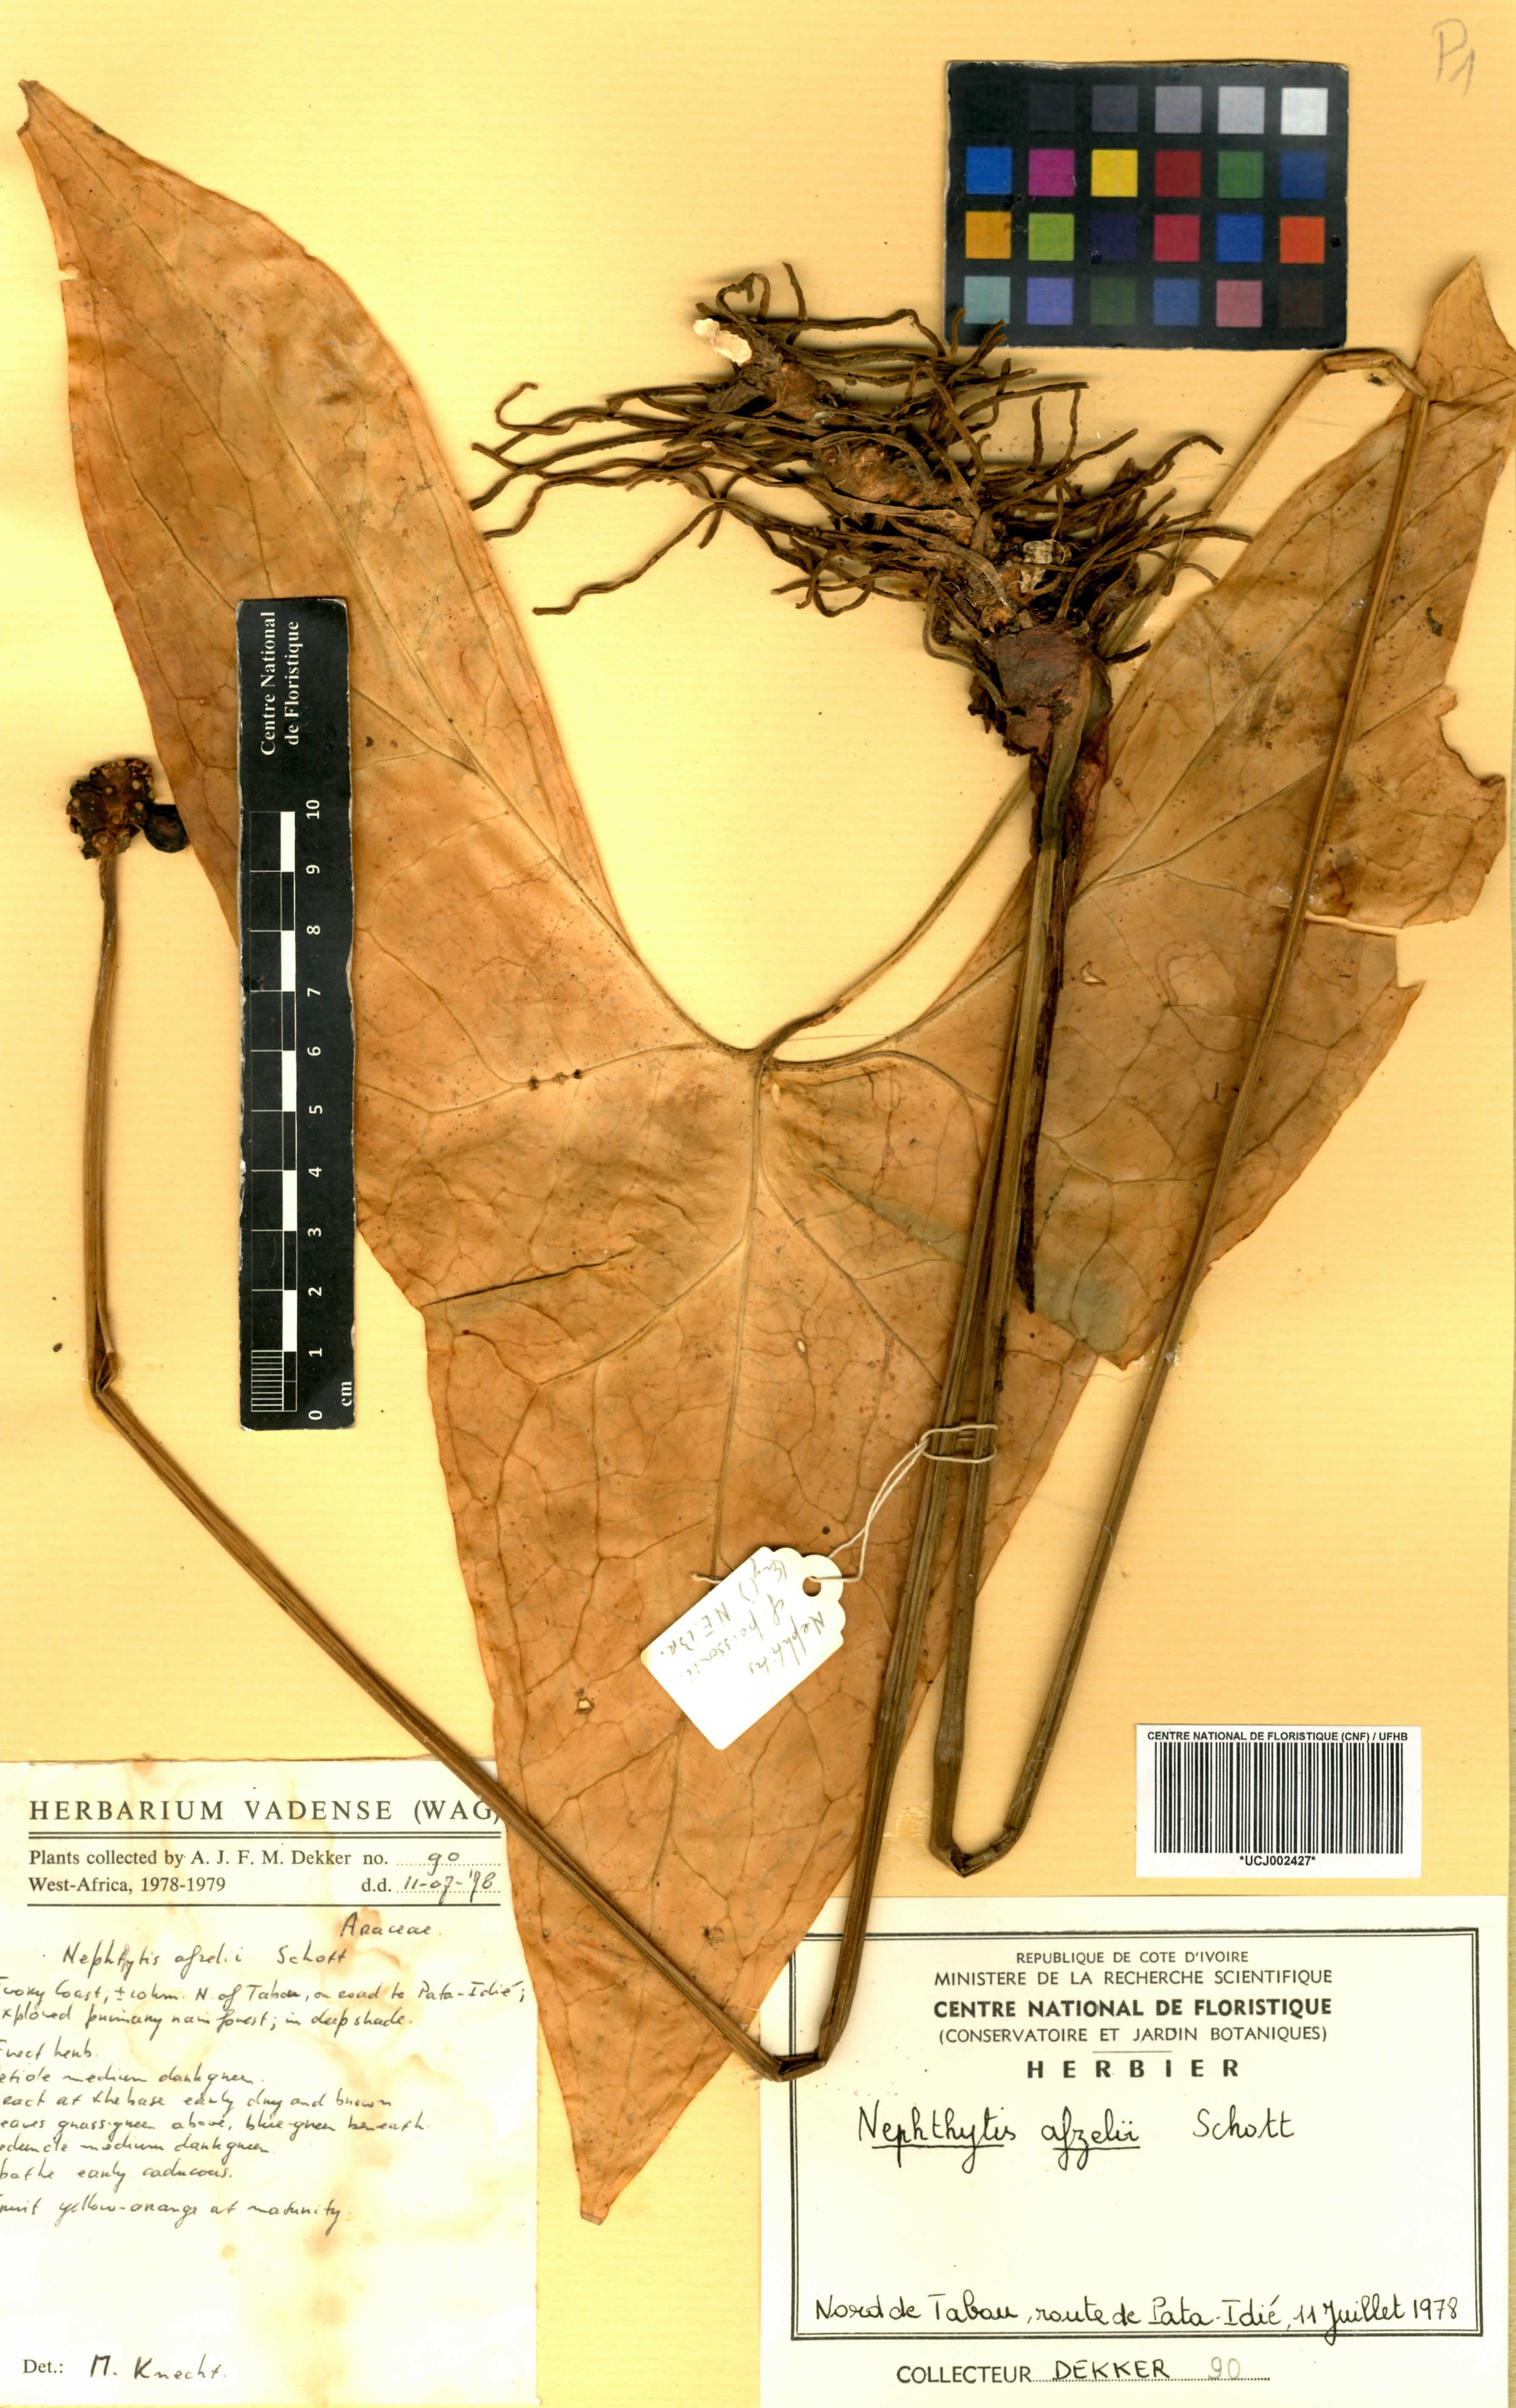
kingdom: Plantae
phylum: Tracheophyta
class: Liliopsida
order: Alismatales
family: Araceae
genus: Nephthytis
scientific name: Nephthytis afzelii
